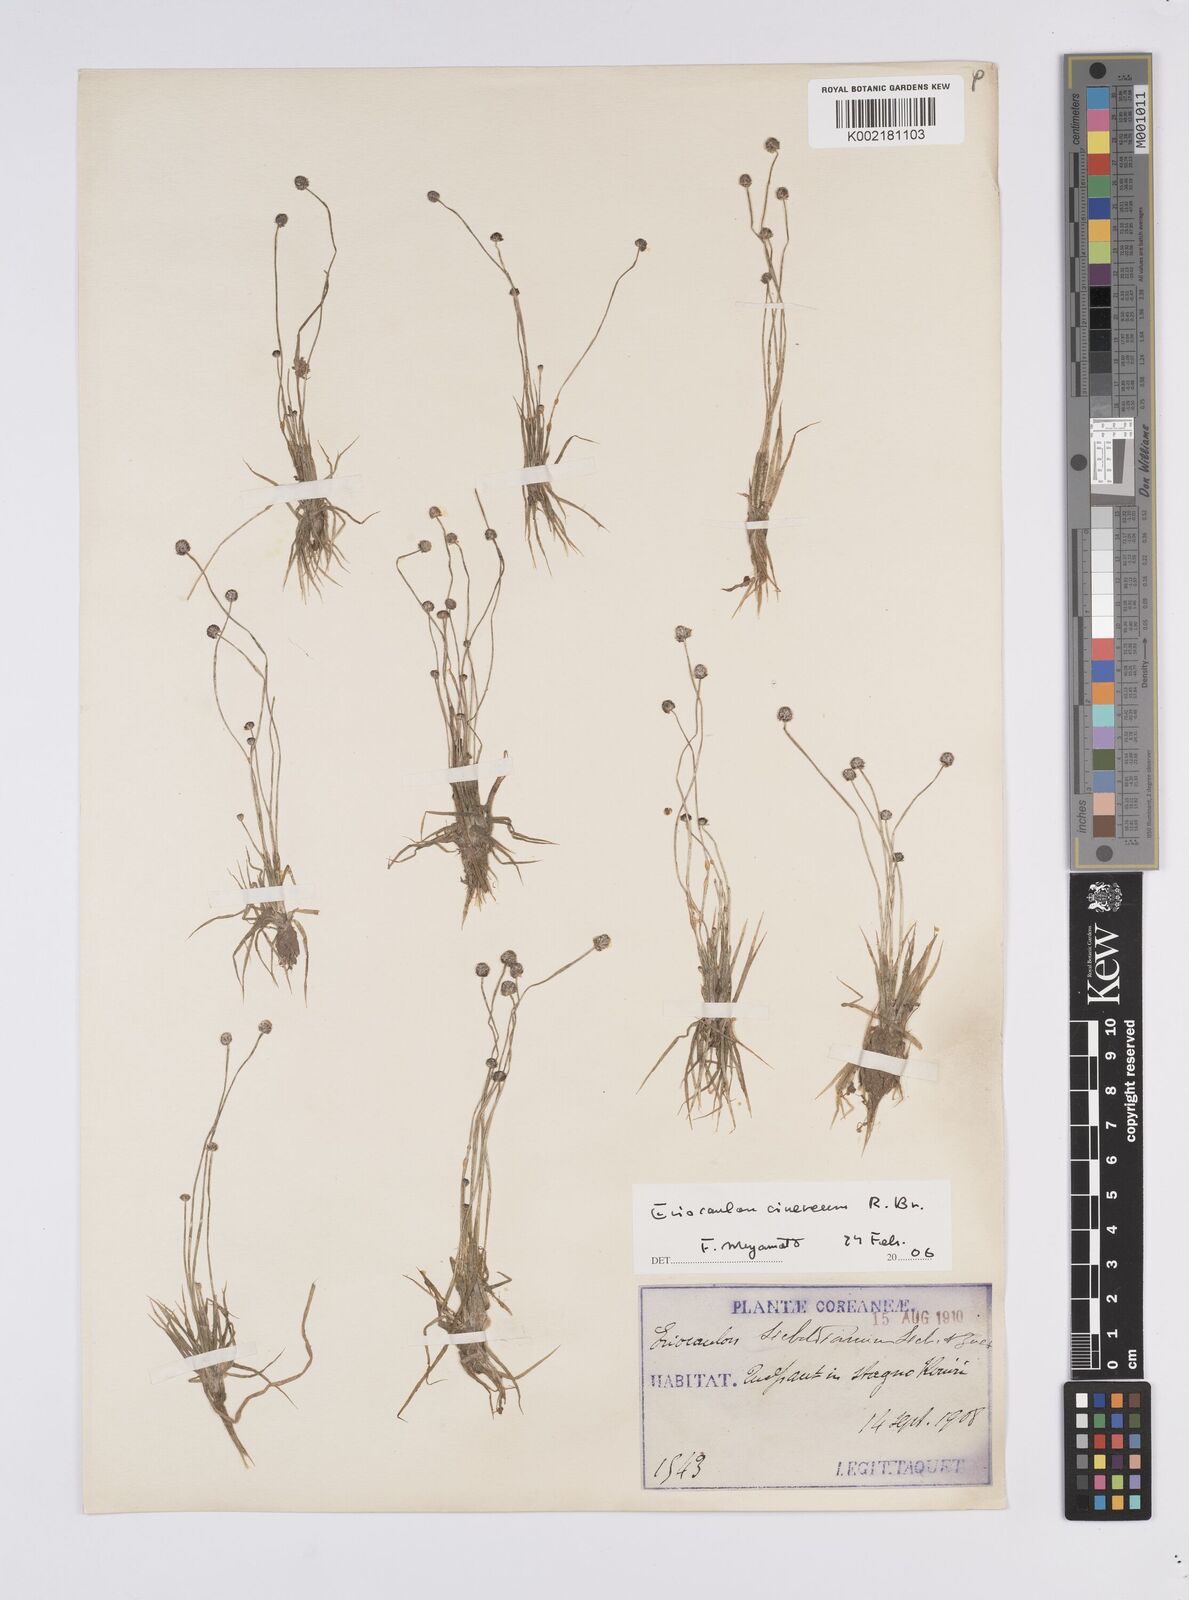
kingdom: Plantae
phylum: Tracheophyta
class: Liliopsida
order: Poales
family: Eriocaulaceae
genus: Eriocaulon
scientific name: Eriocaulon cinereum
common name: Ashy pipewort
